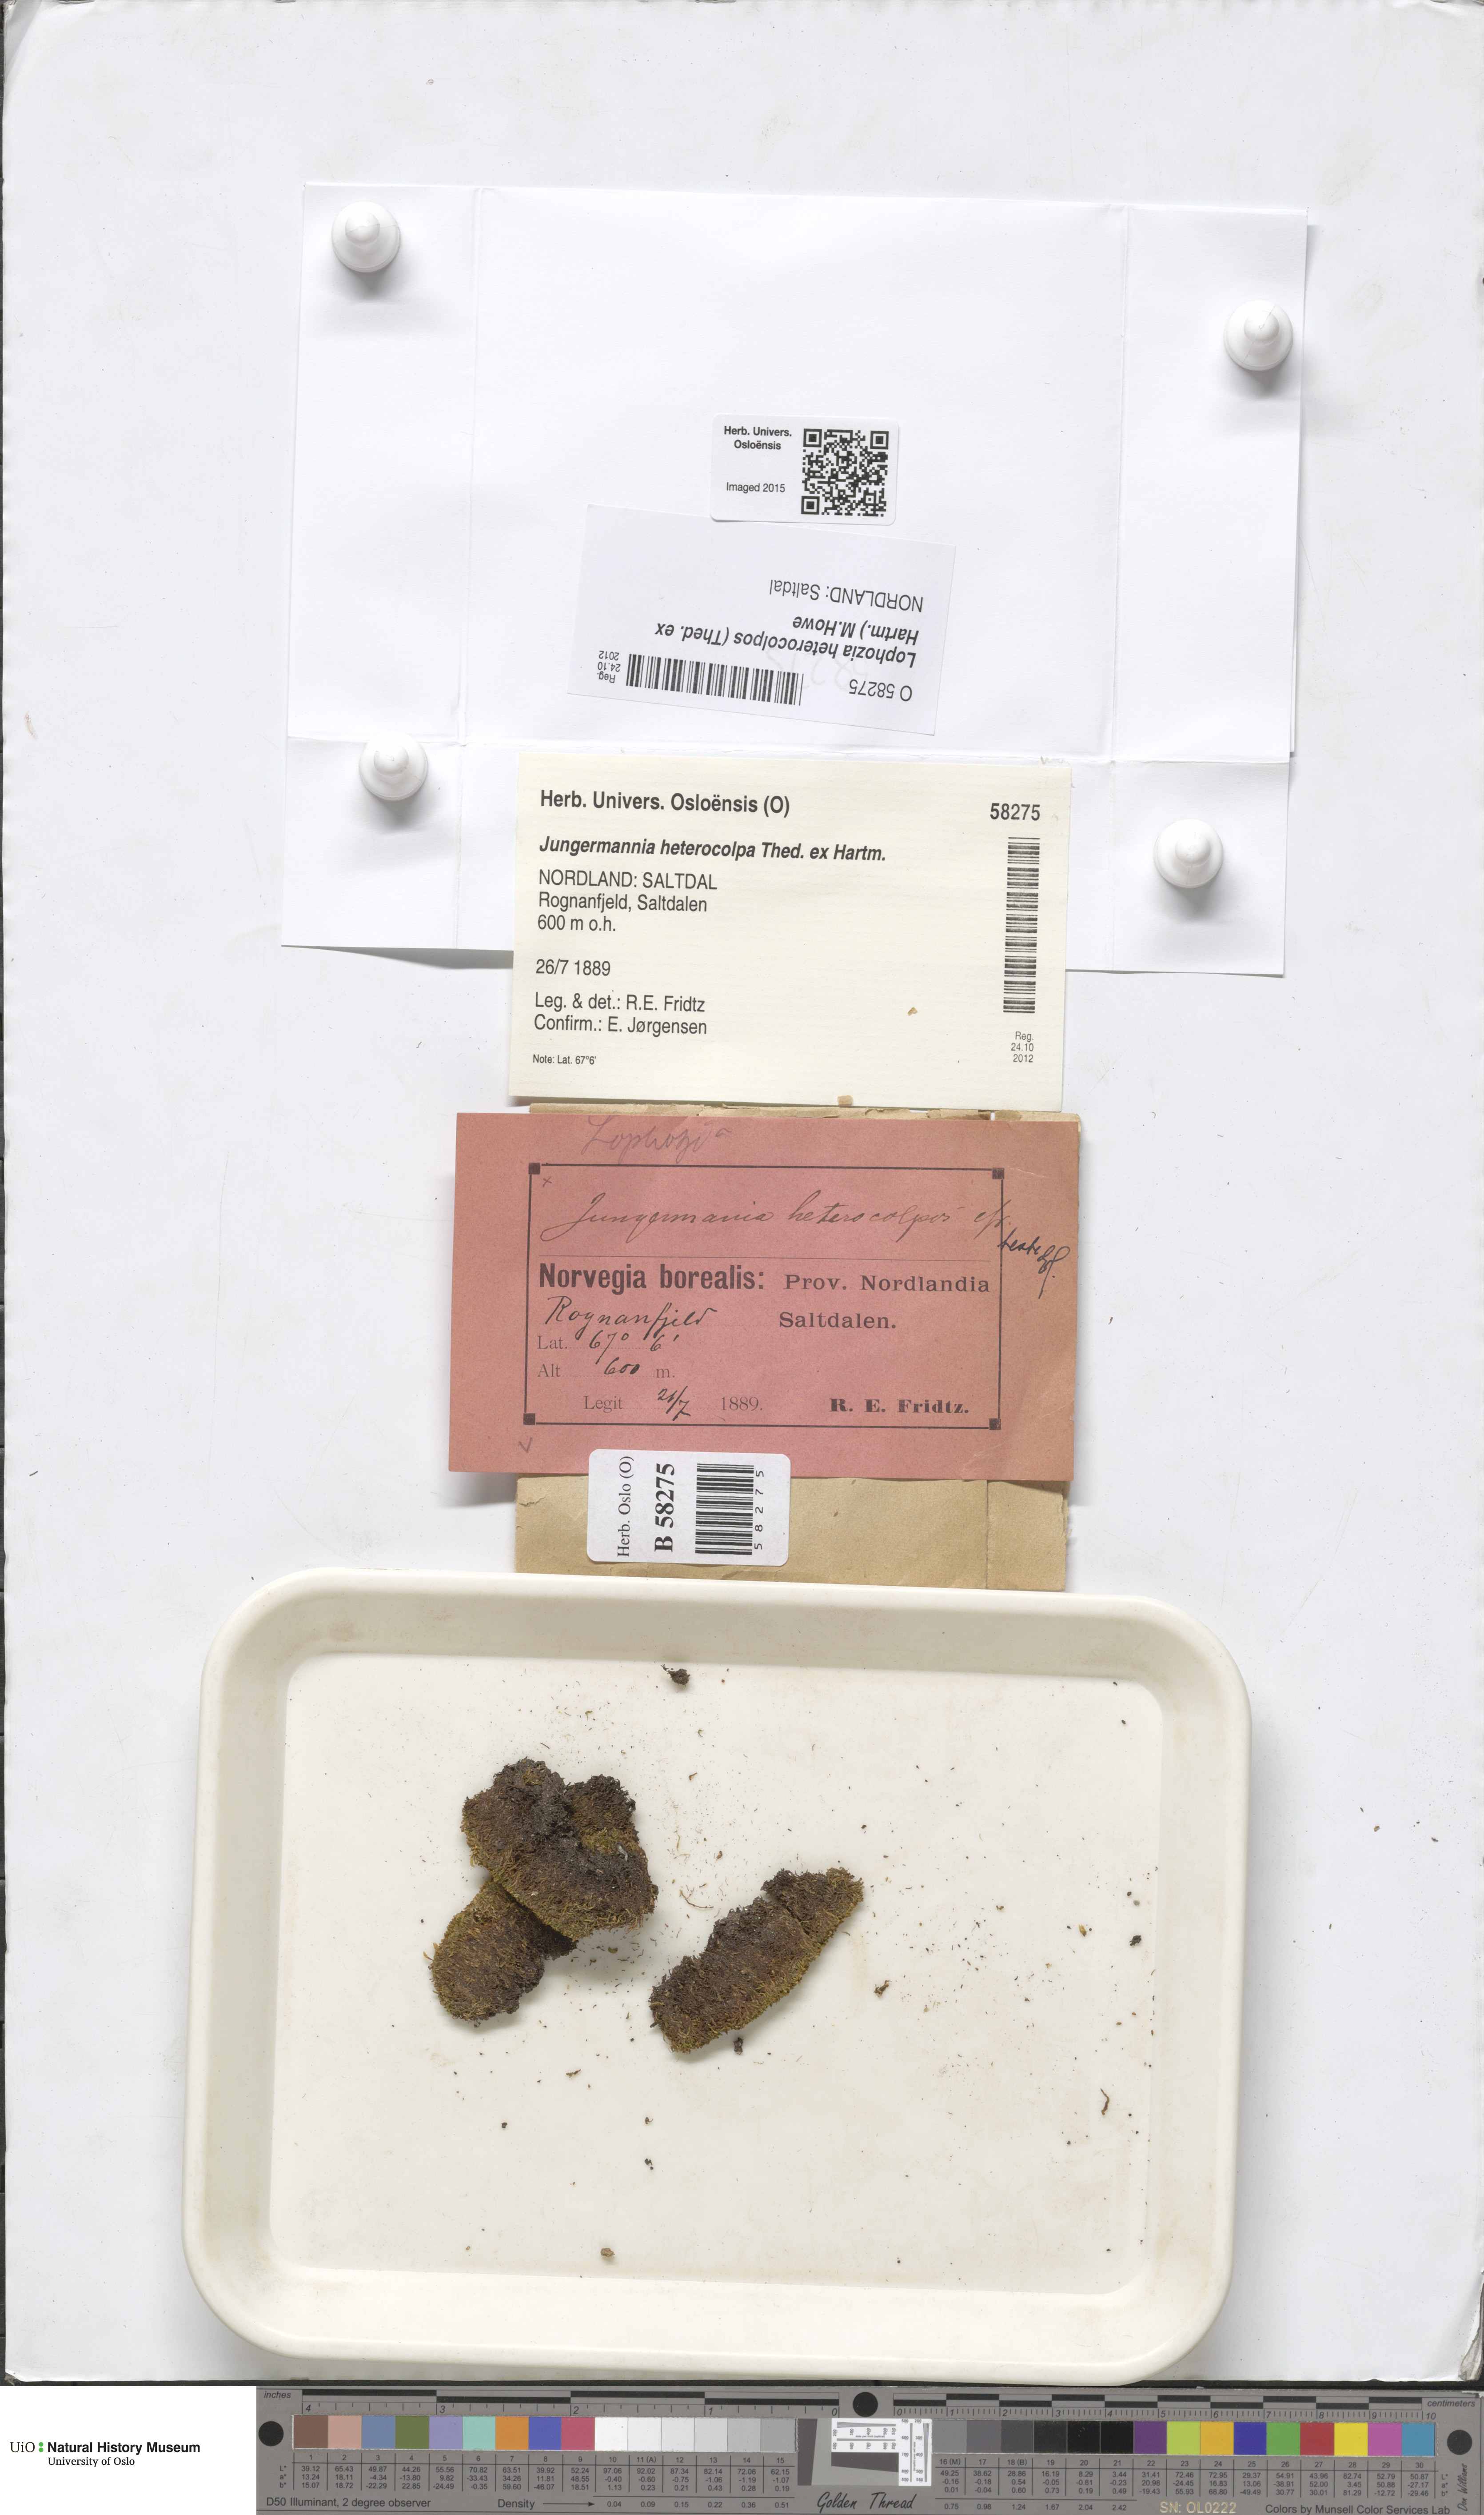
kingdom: Plantae
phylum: Marchantiophyta
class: Jungermanniopsida
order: Jungermanniales
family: Jungermanniaceae
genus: Mesoptychia
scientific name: Mesoptychia heterocolpos
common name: Ragged notchwort
